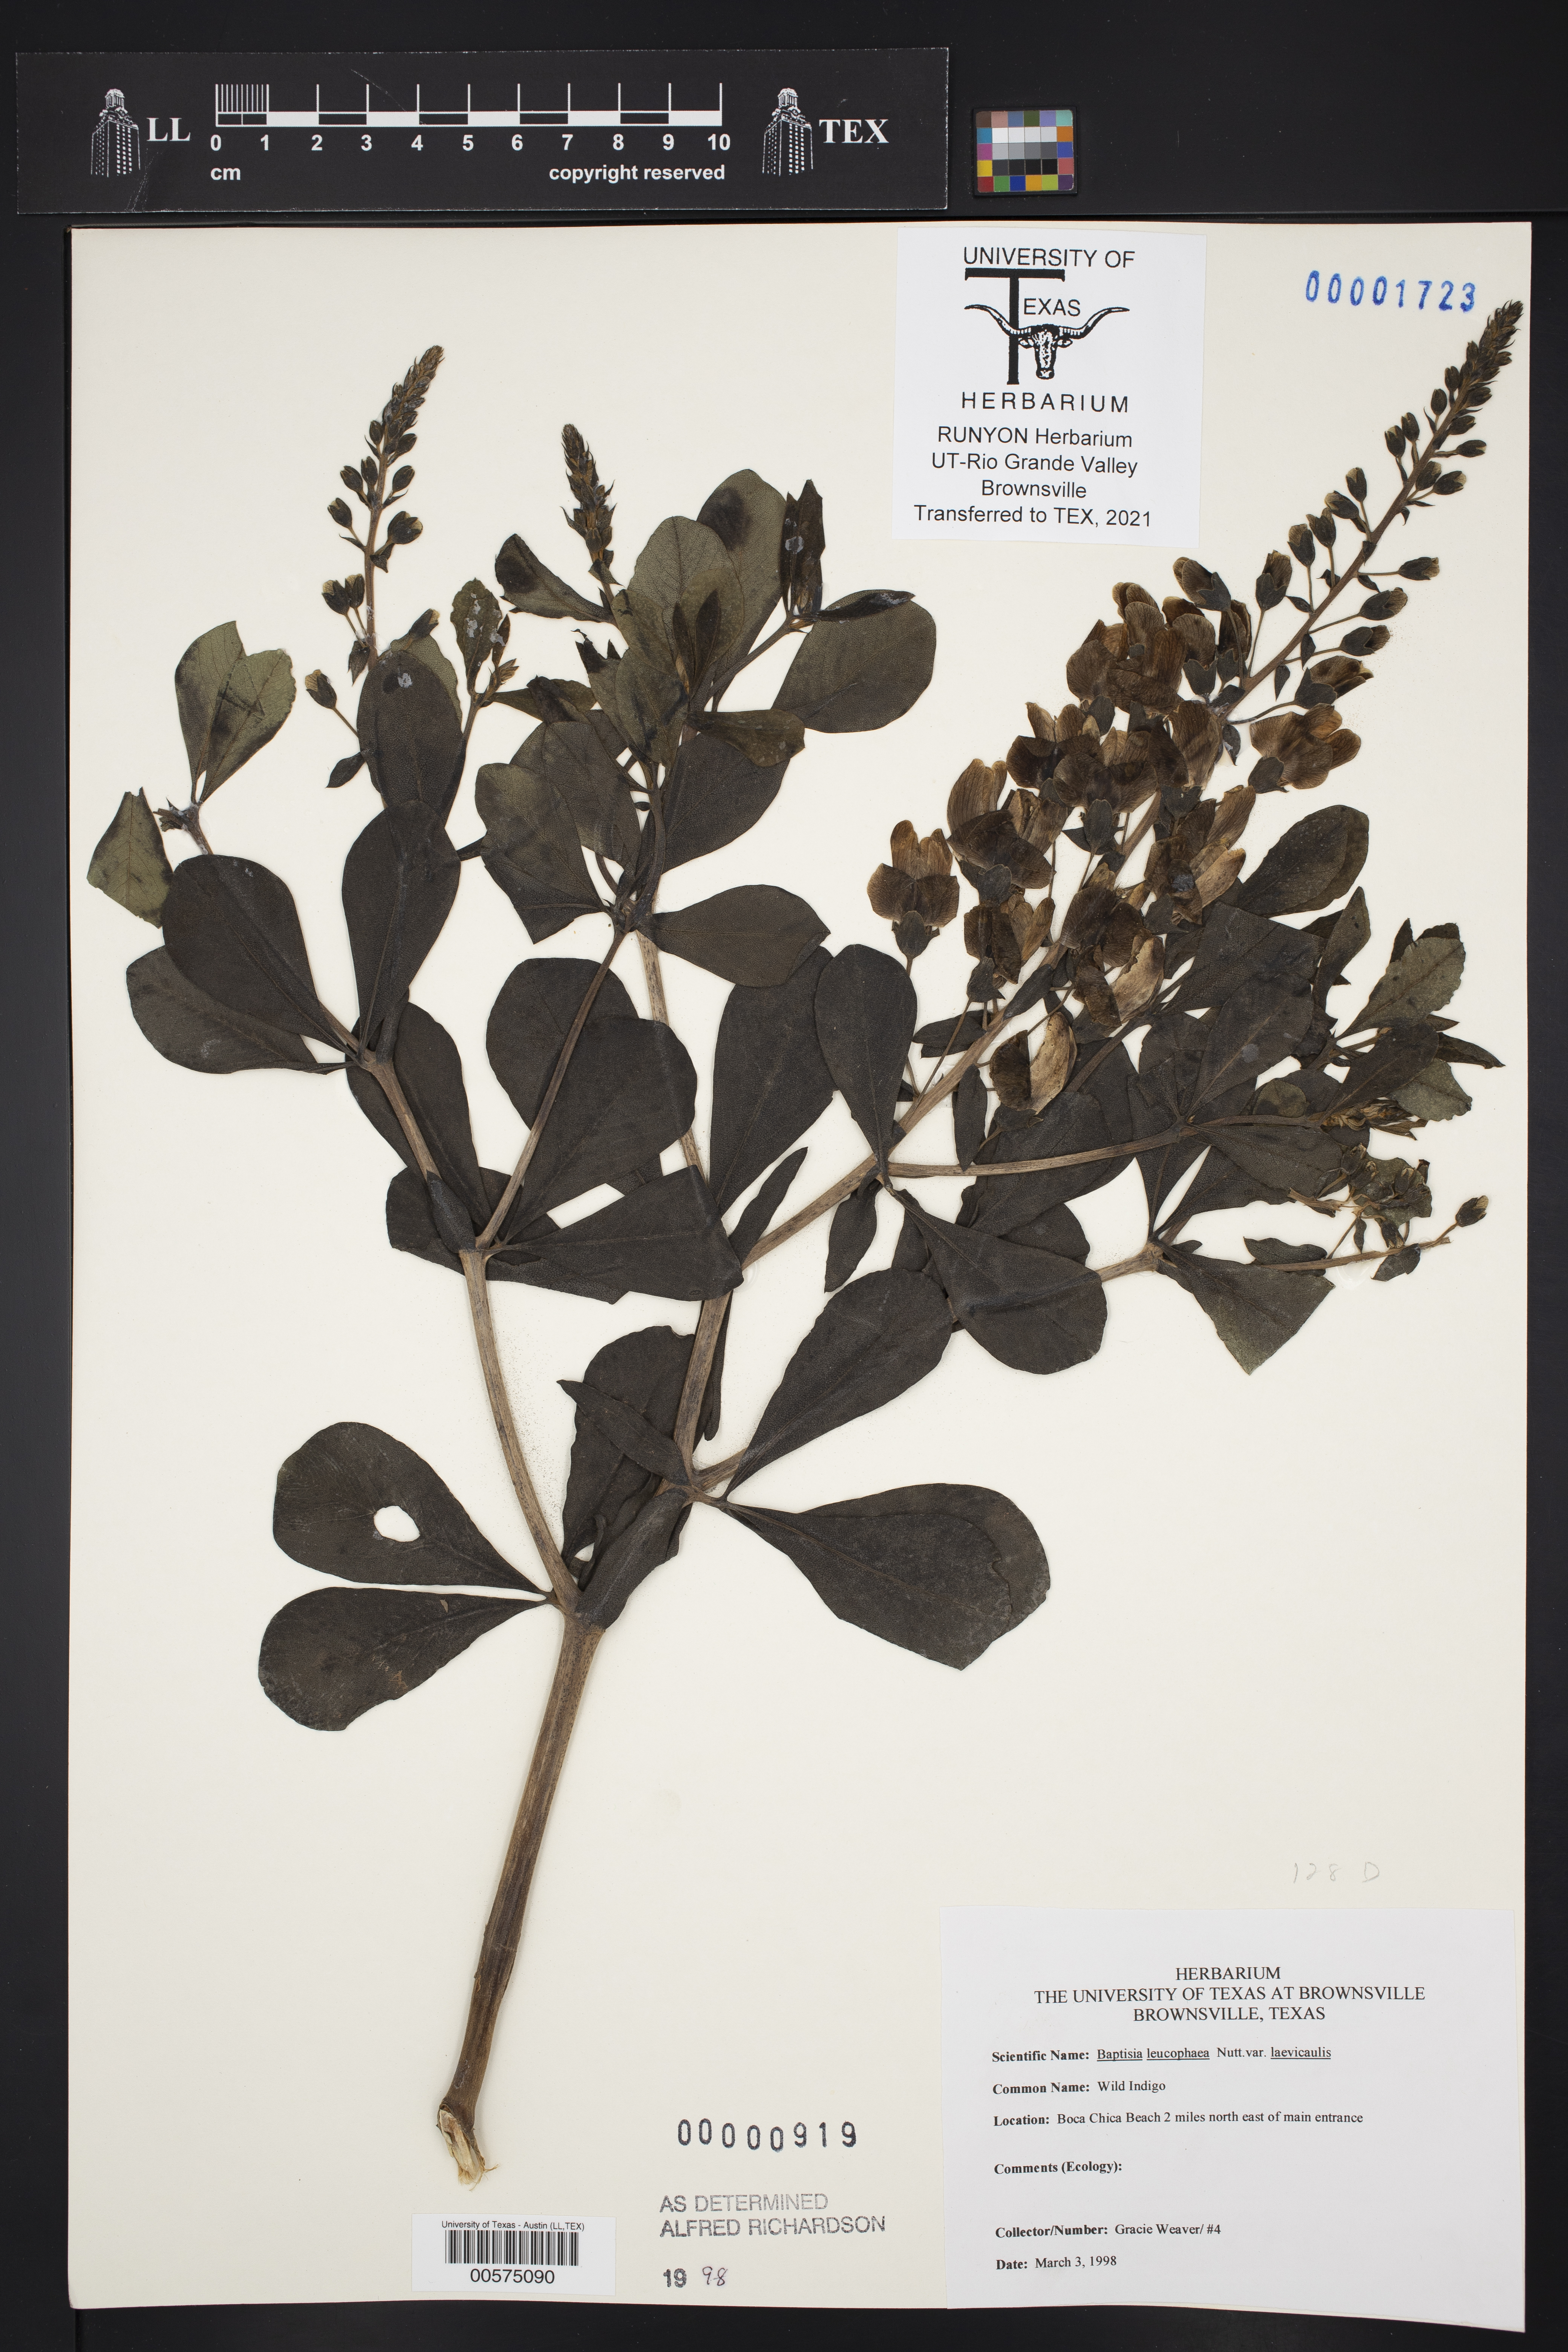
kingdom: Plantae
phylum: Tracheophyta
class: Magnoliopsida
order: Fabales
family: Fabaceae
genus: Baptisia
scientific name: Baptisia bracteata
